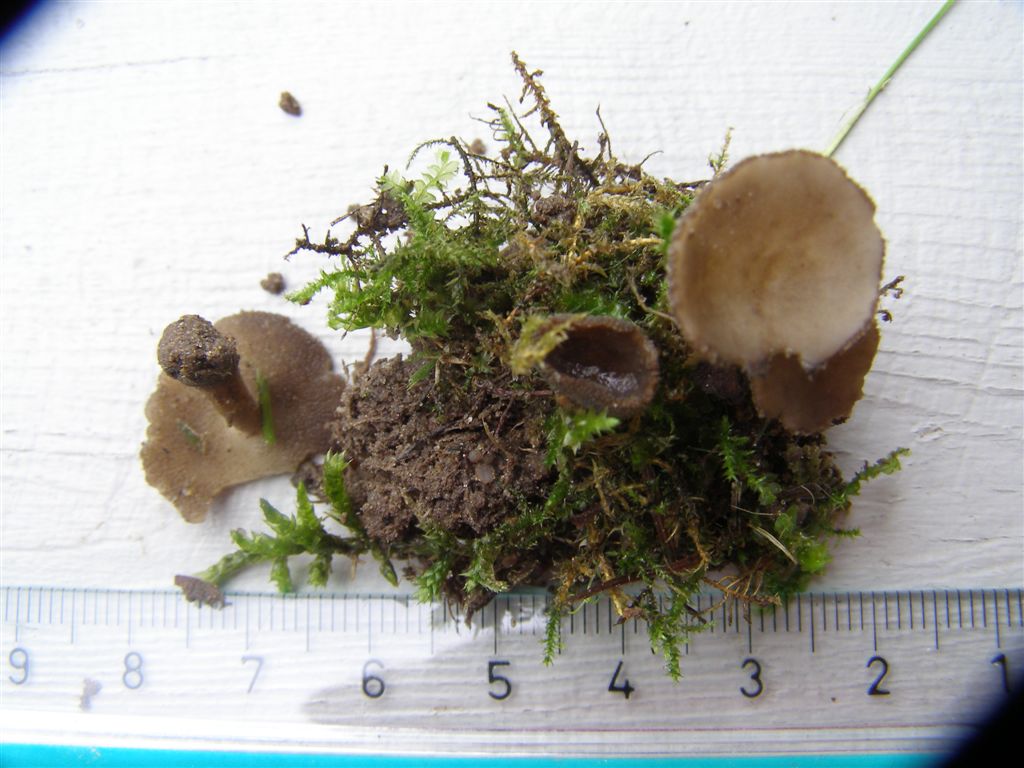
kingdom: Fungi
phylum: Ascomycota
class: Pezizomycetes
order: Pezizales
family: Helvellaceae
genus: Helvella
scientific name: Helvella fibrosa
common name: dunstokket foldhat
